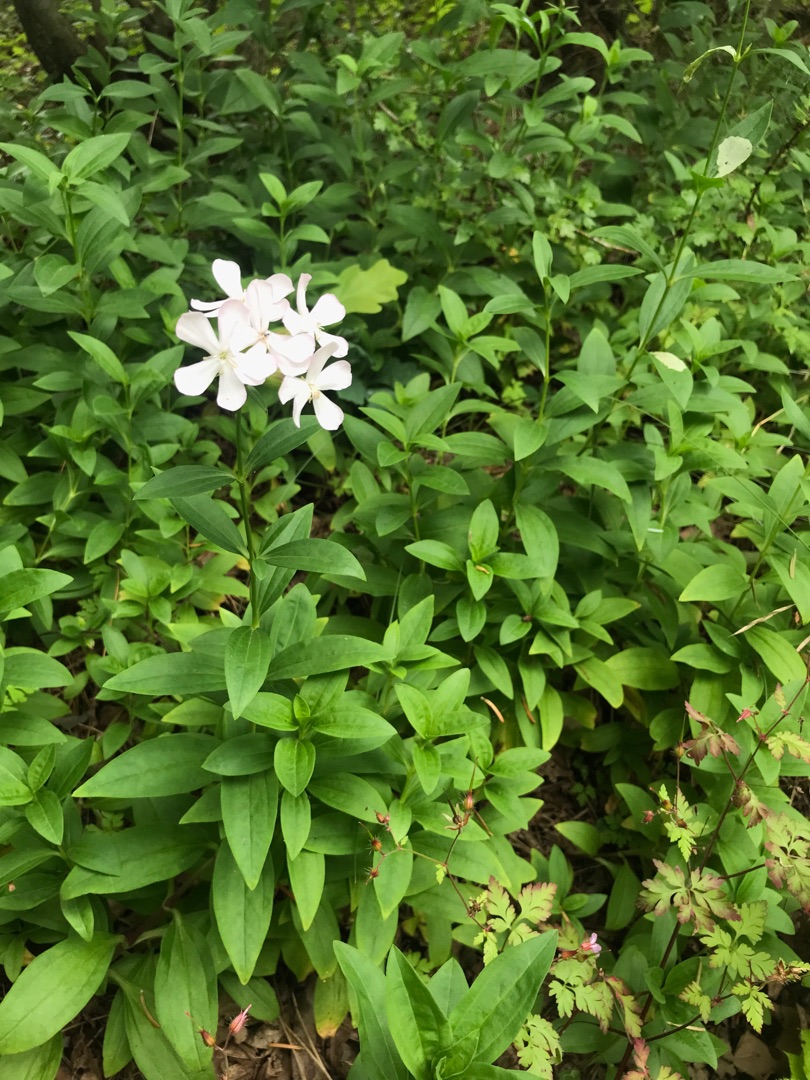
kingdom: Plantae
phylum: Tracheophyta
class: Magnoliopsida
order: Caryophyllales
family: Caryophyllaceae
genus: Saponaria
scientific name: Saponaria officinalis
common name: Sæbeurt
